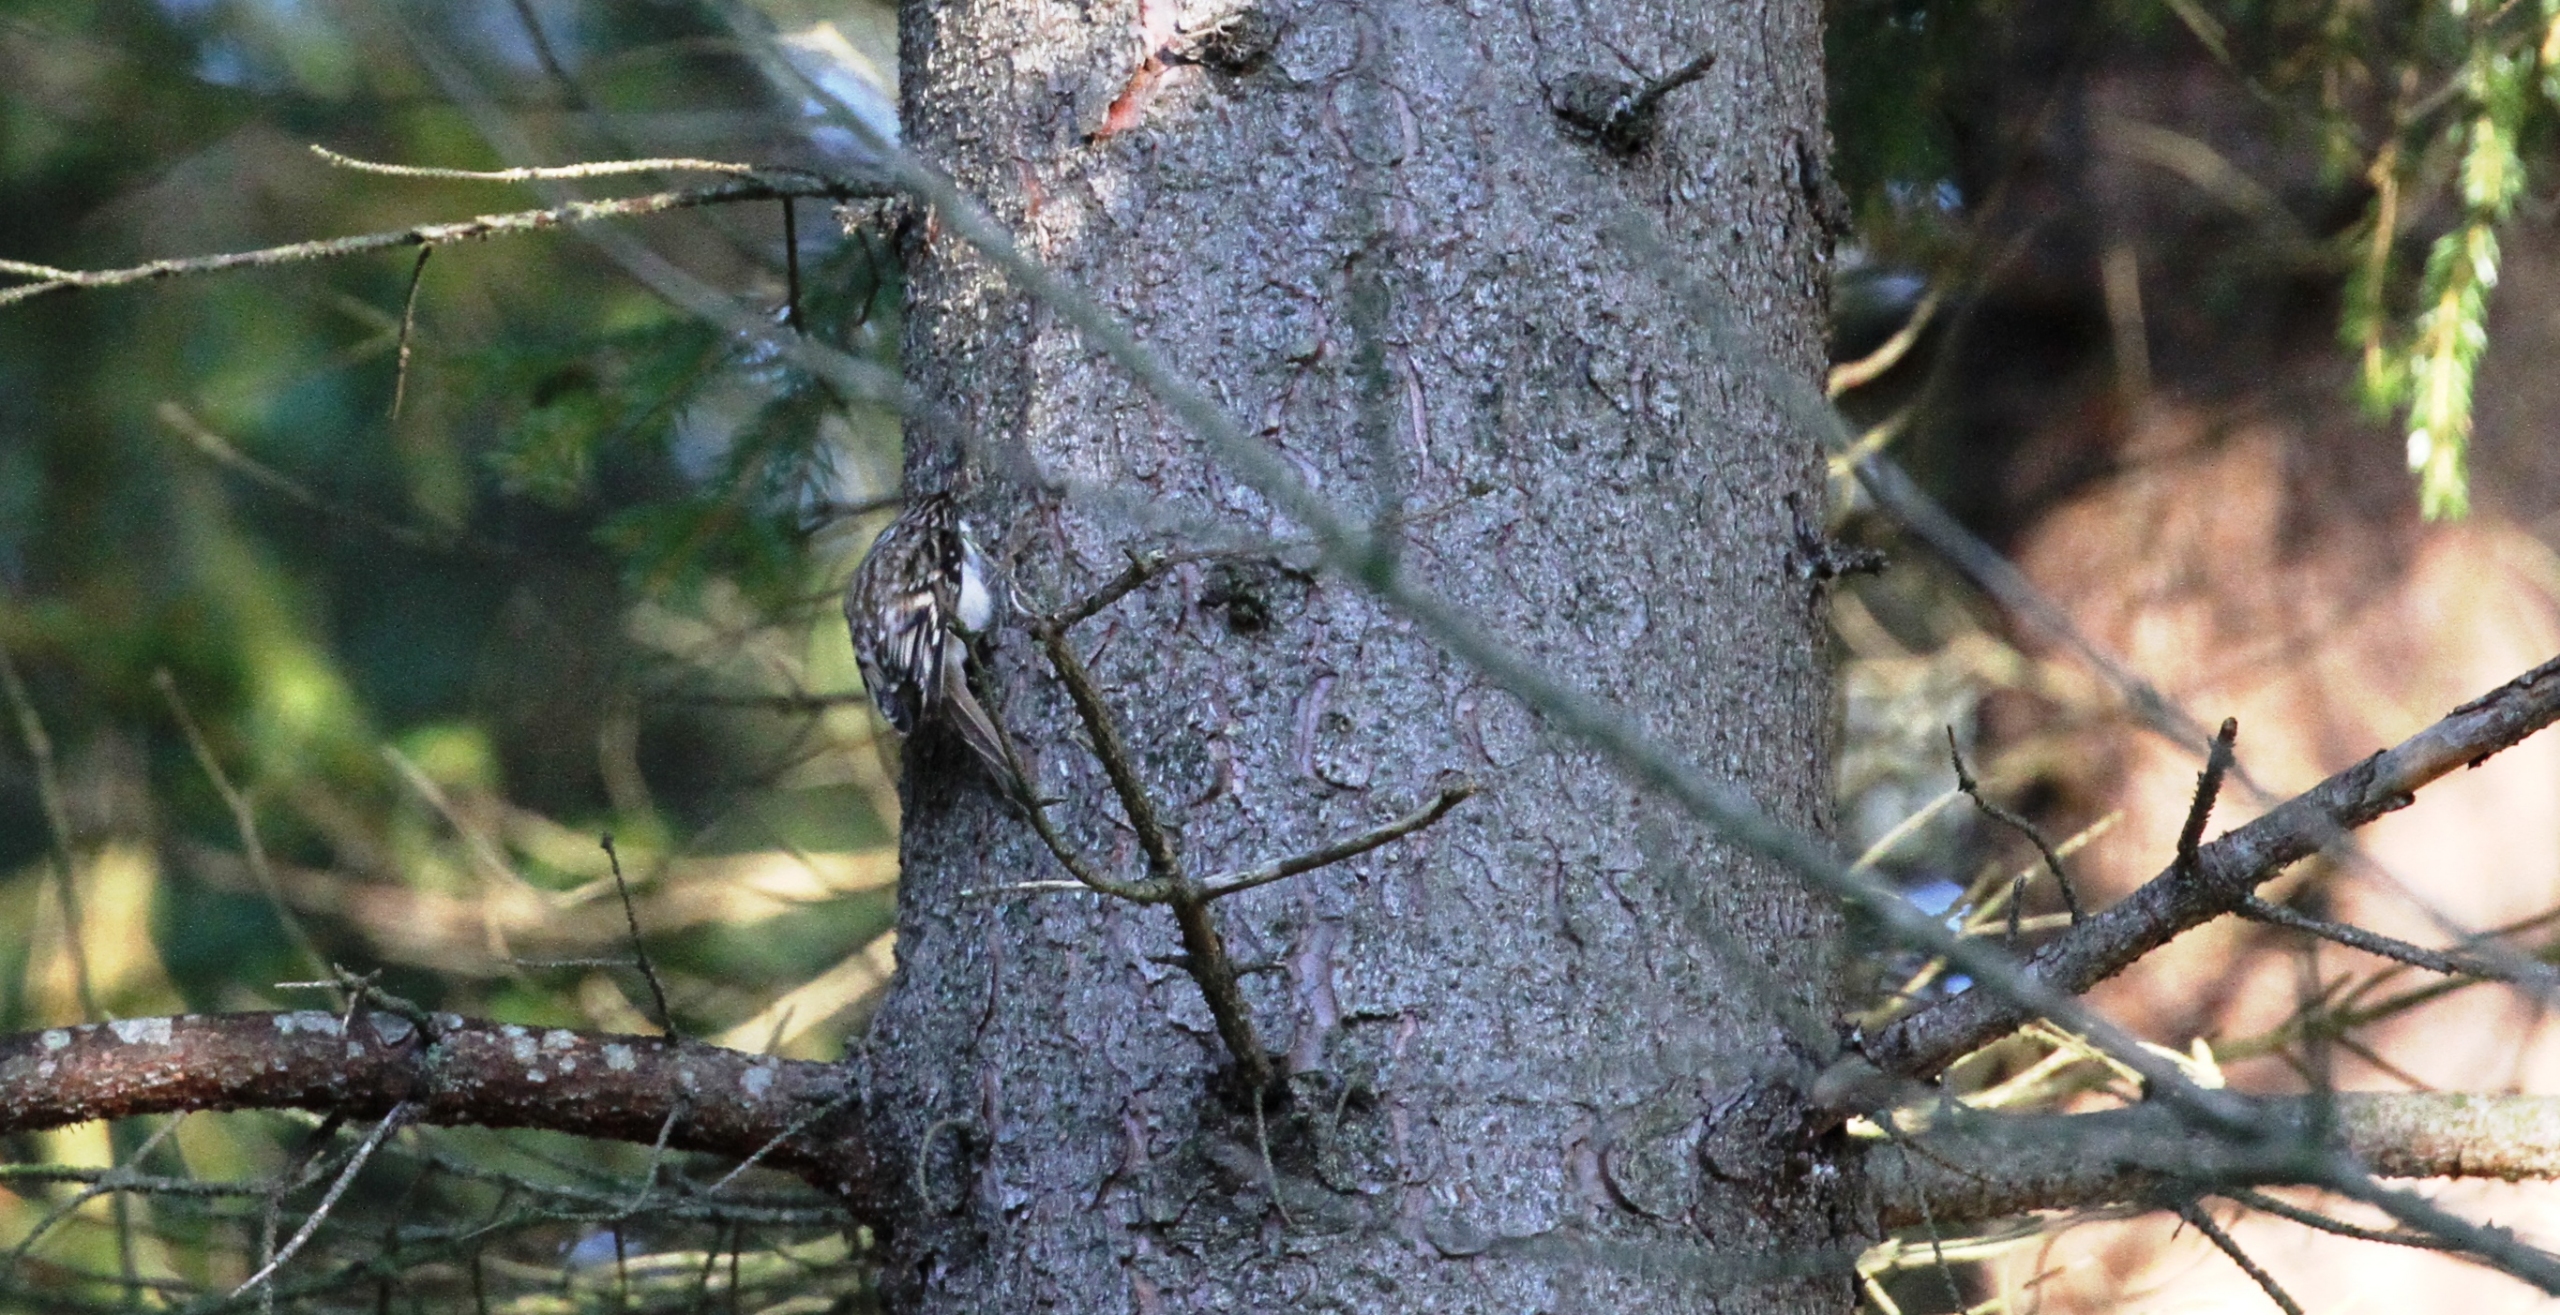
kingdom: Animalia
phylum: Chordata
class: Aves
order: Passeriformes
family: Certhiidae
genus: Certhia
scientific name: Certhia familiaris
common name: Træløber
